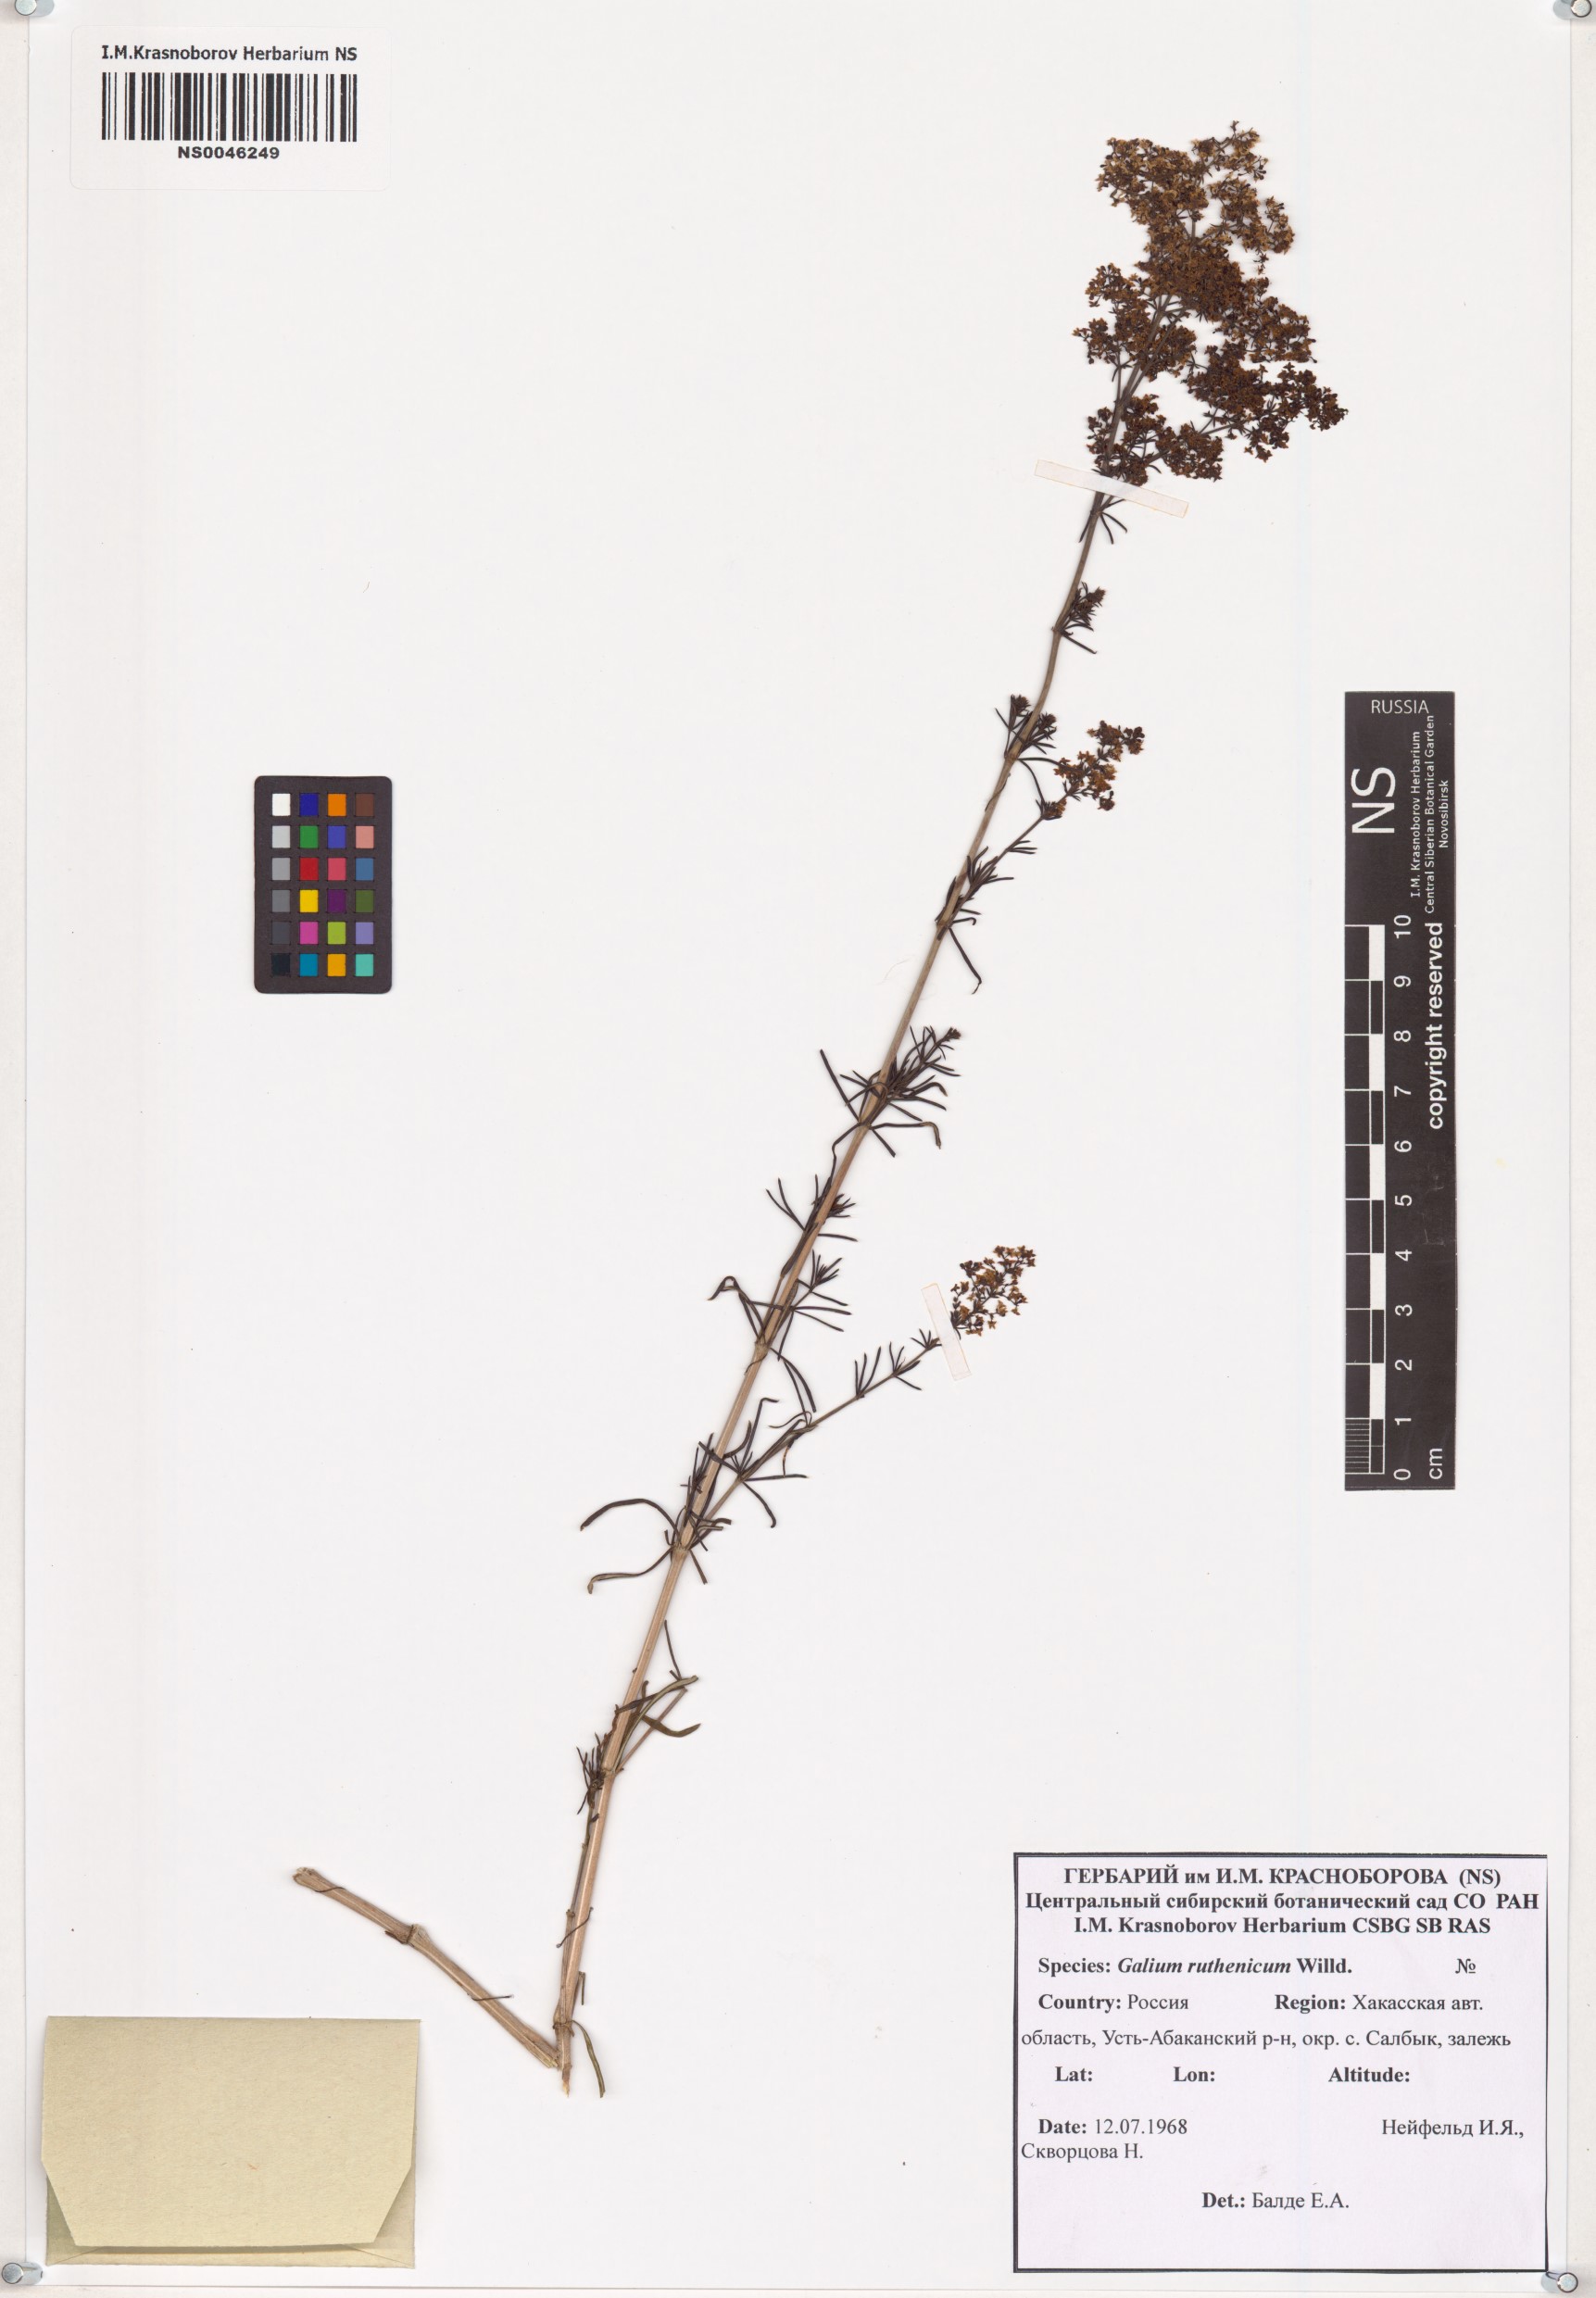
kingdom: Plantae
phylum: Tracheophyta
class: Magnoliopsida
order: Gentianales
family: Rubiaceae
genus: Galium
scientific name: Galium verum
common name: Lady's bedstraw
